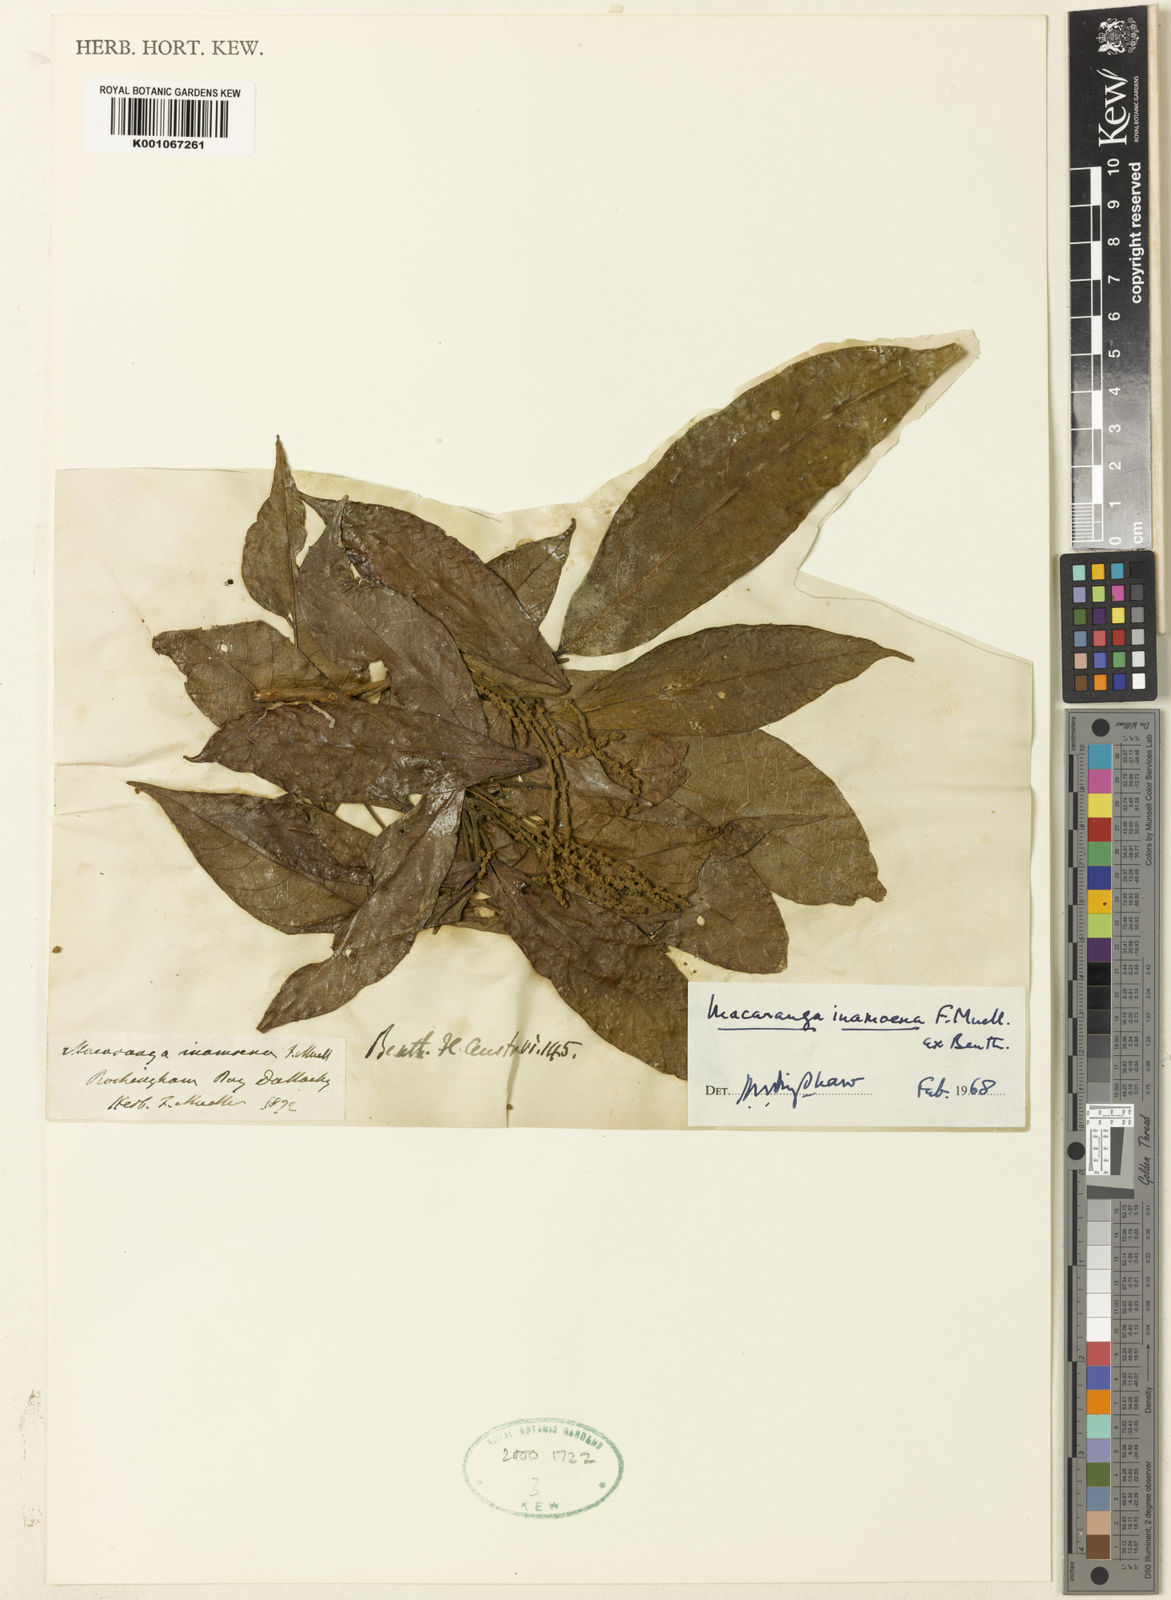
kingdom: Plantae
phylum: Tracheophyta
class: Magnoliopsida
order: Malpighiales
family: Euphorbiaceae
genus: Macaranga
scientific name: Macaranga inamoena
